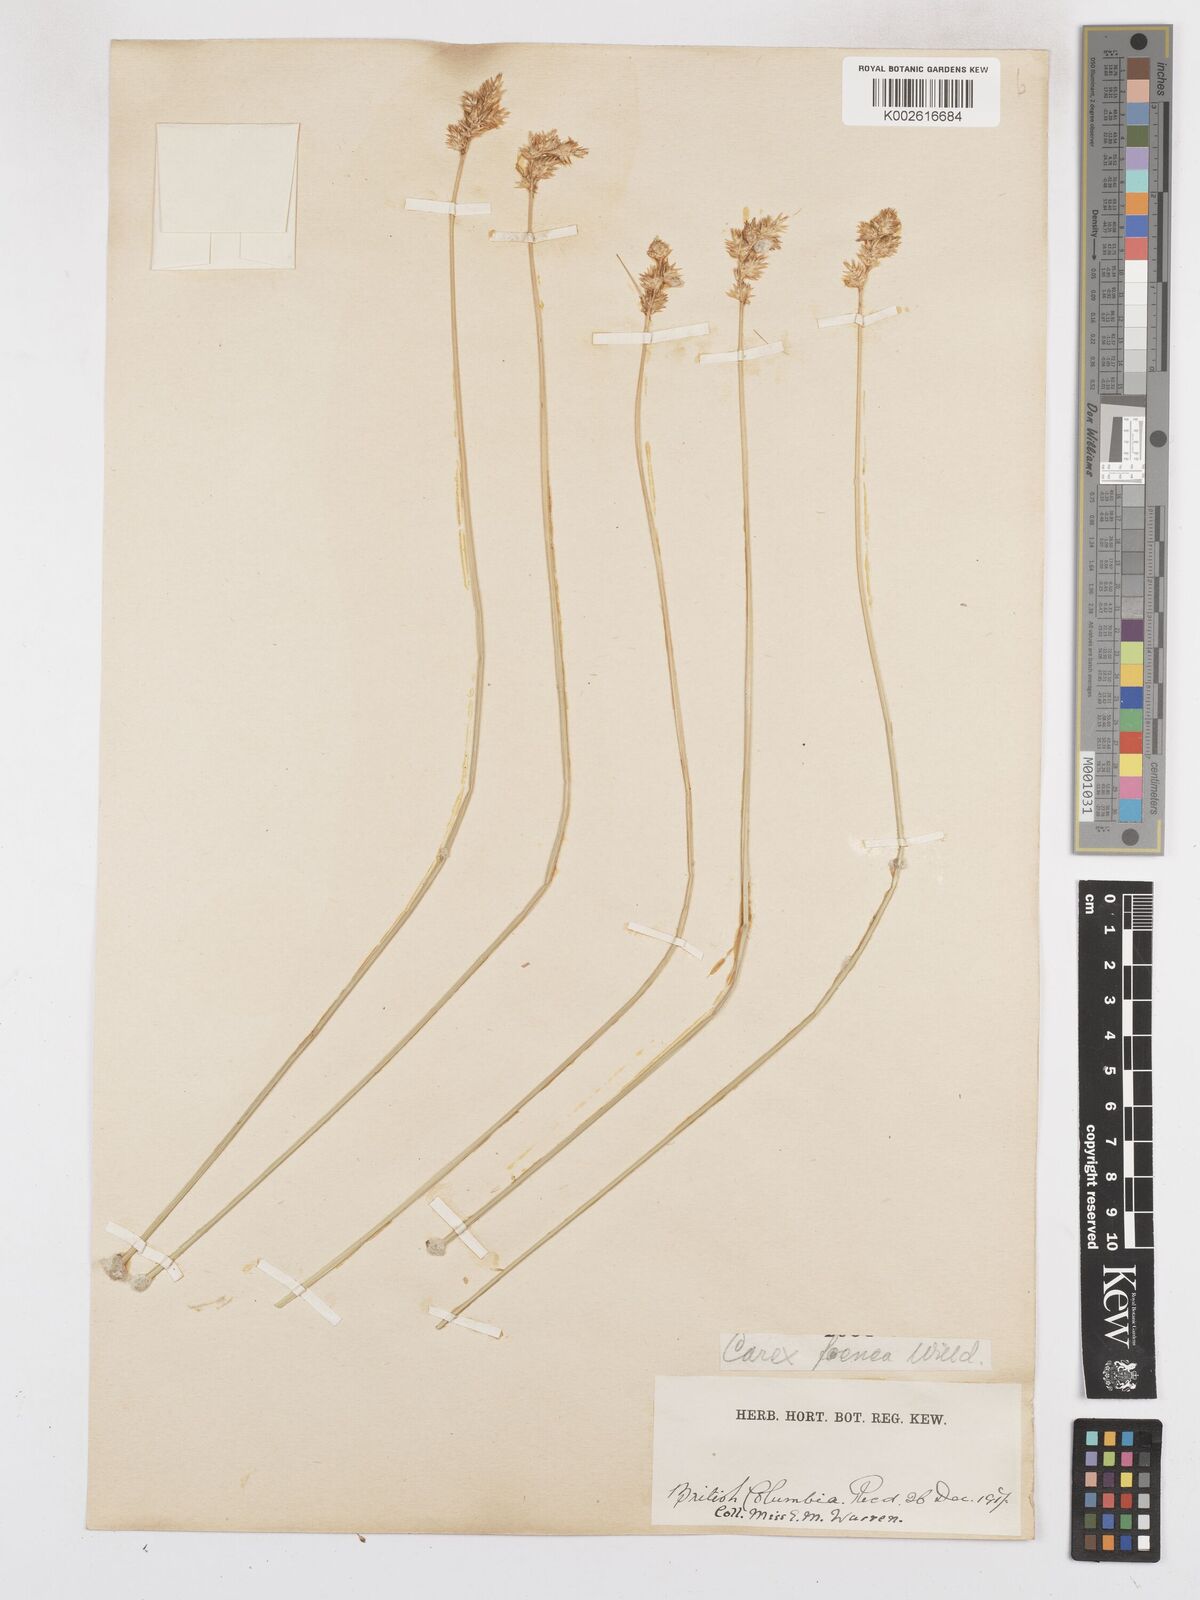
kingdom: Plantae
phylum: Tracheophyta
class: Liliopsida
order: Poales
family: Cyperaceae
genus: Carex
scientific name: Carex argyrantha
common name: Silvery-flowered sedge
